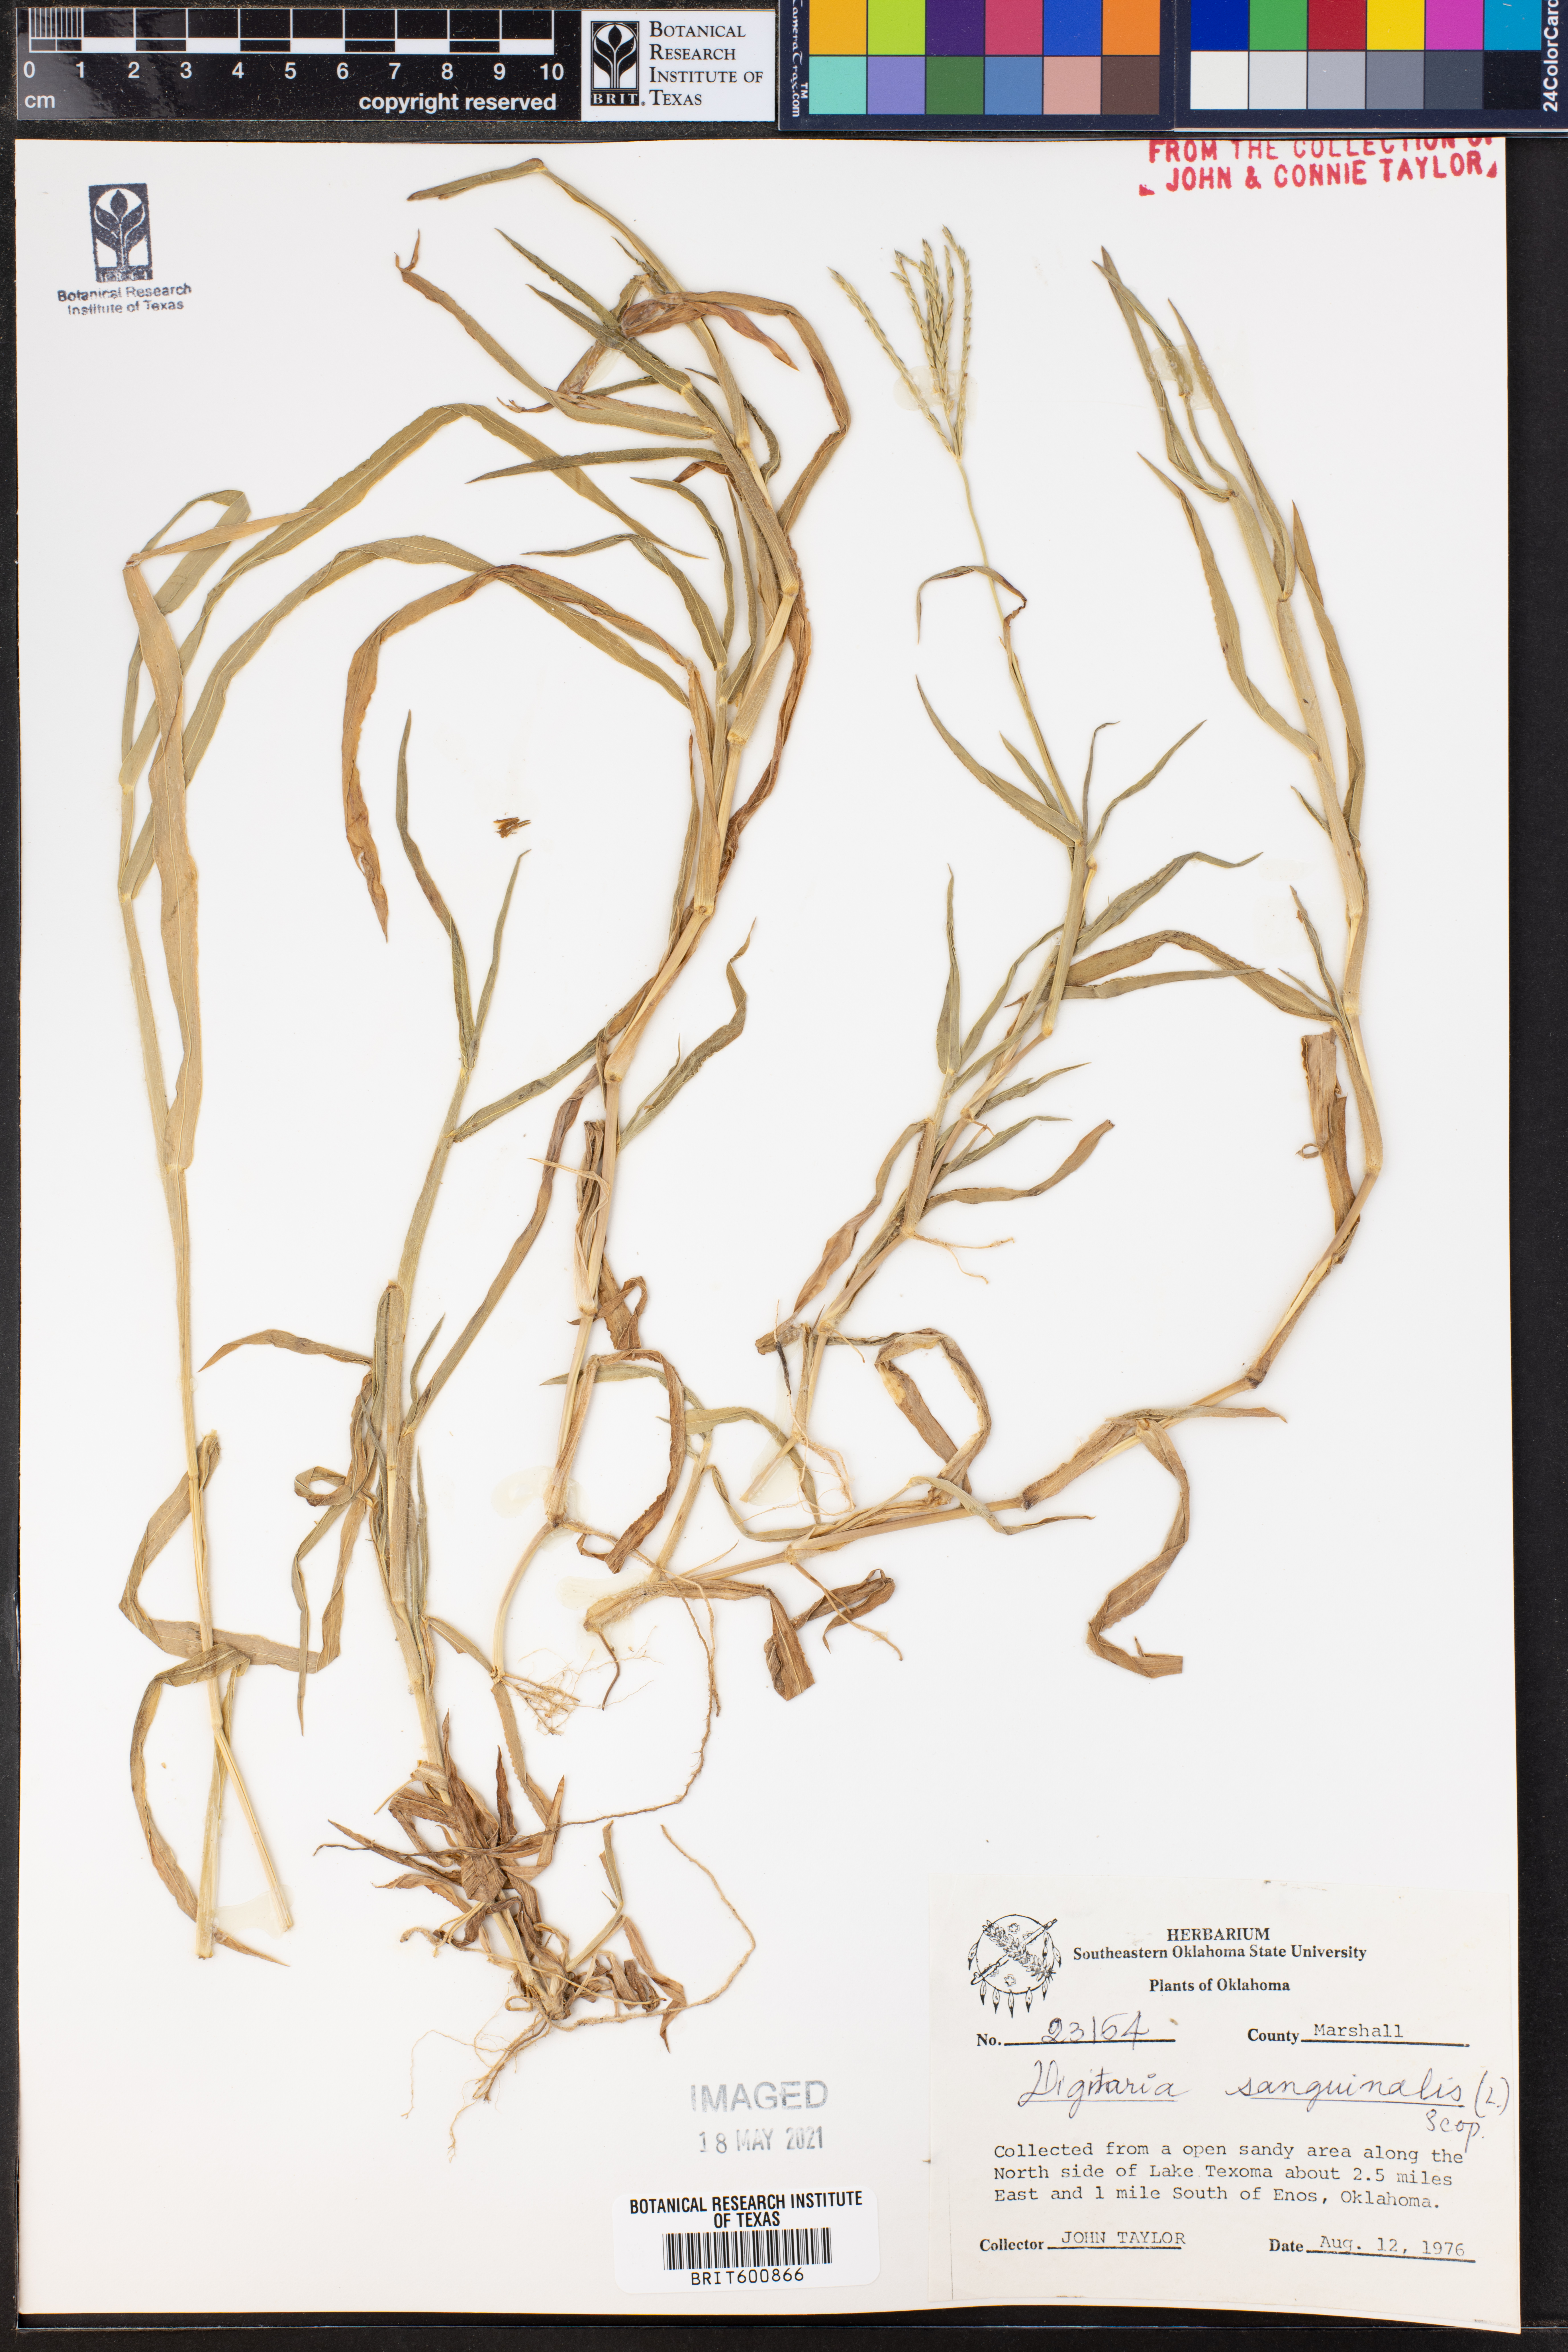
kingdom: Plantae
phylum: Tracheophyta
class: Liliopsida
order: Poales
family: Poaceae
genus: Digitaria
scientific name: Digitaria sanguinalis
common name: Hairy crabgrass
